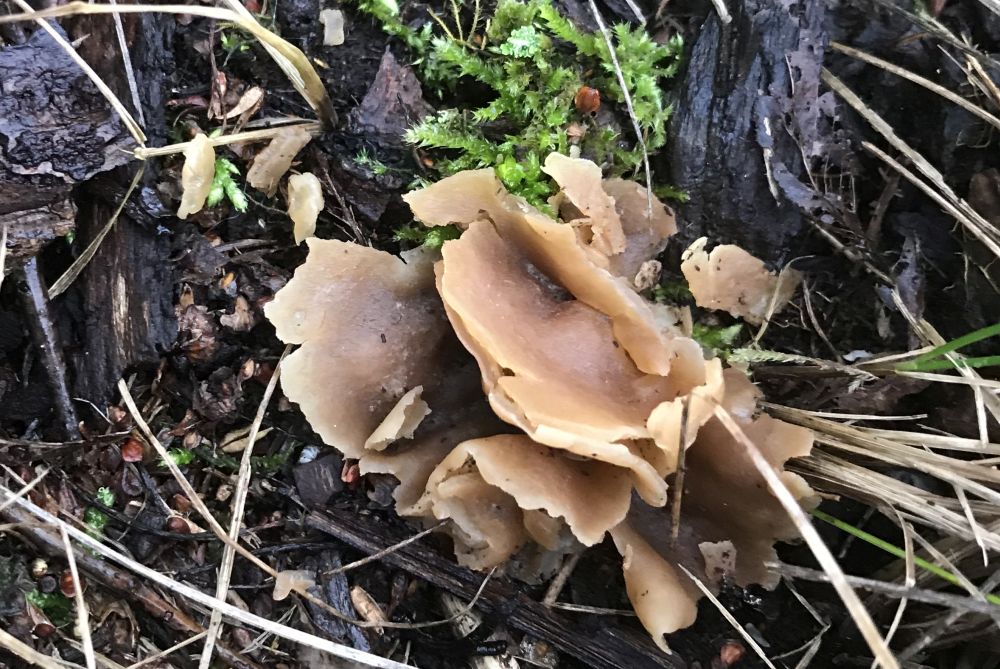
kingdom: Fungi
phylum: Ascomycota
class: Pezizomycetes
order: Pezizales
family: Pezizaceae
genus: Peziza
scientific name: Peziza varia
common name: Ved-bægersvamp
